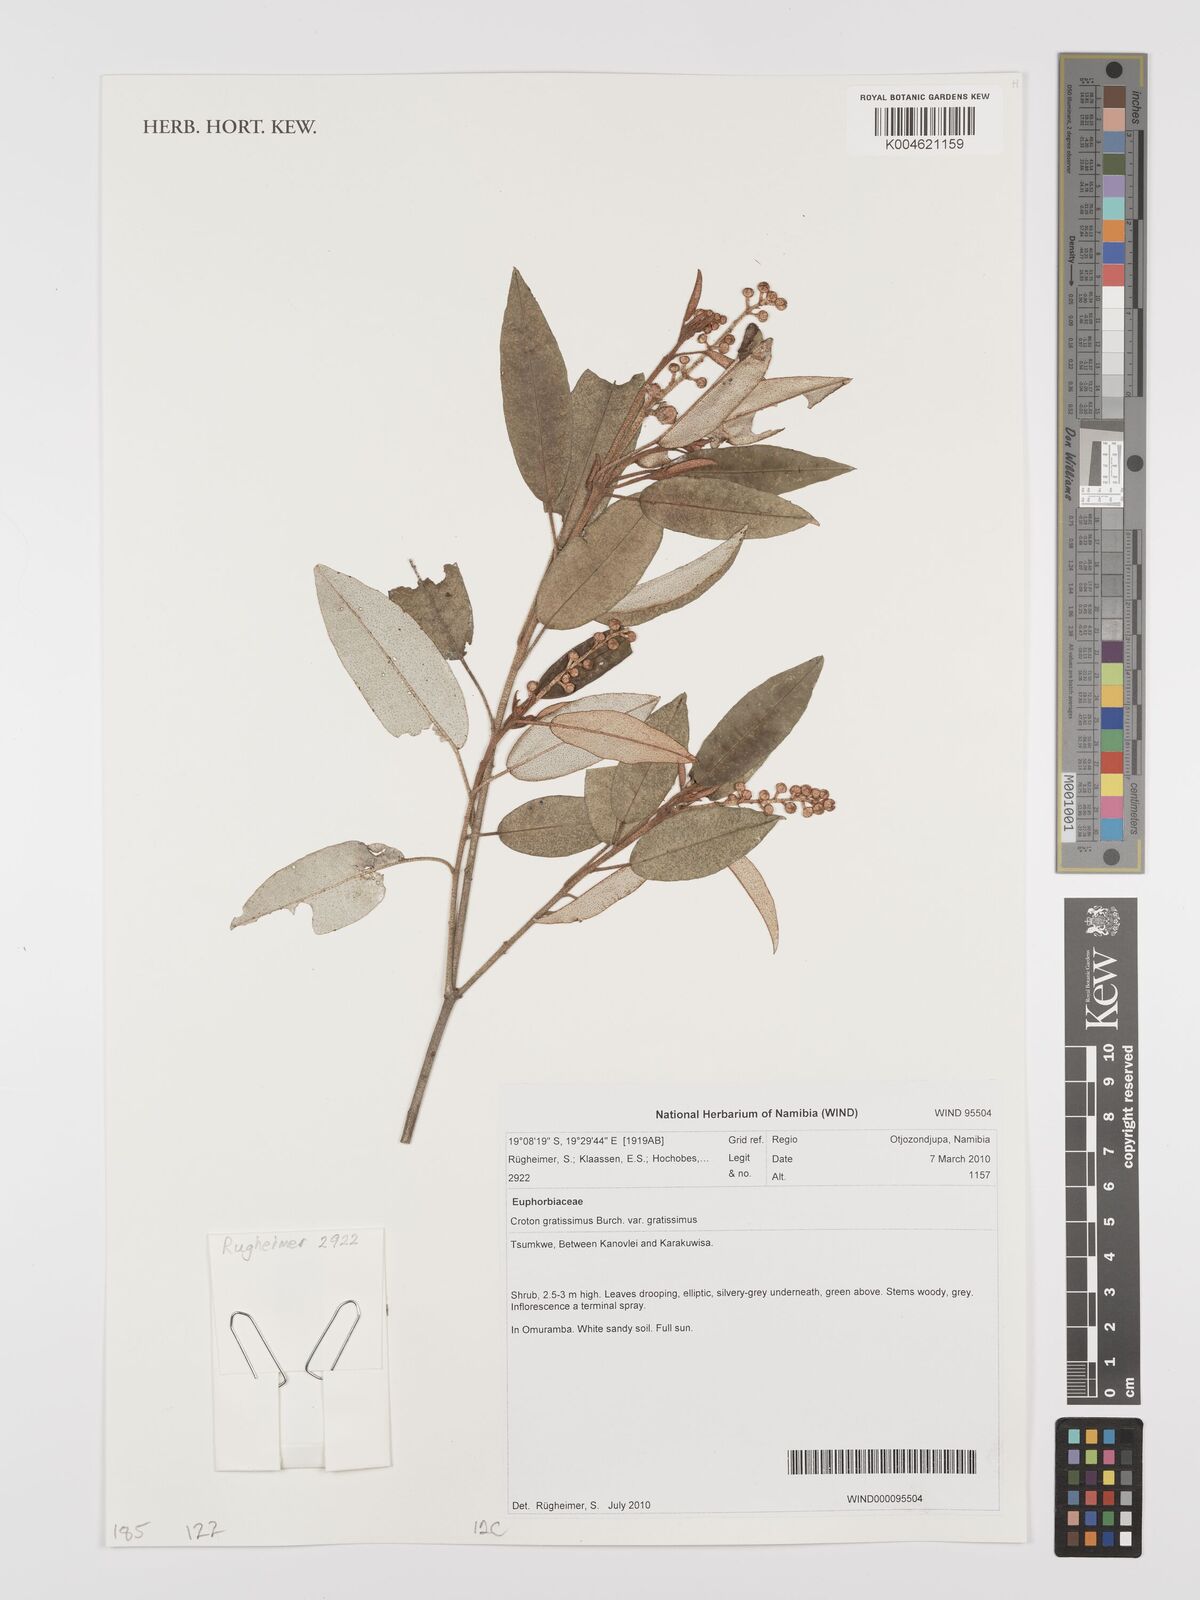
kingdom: Plantae
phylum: Tracheophyta
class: Magnoliopsida
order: Malpighiales
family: Euphorbiaceae
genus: Croton
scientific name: Croton gratissimus
